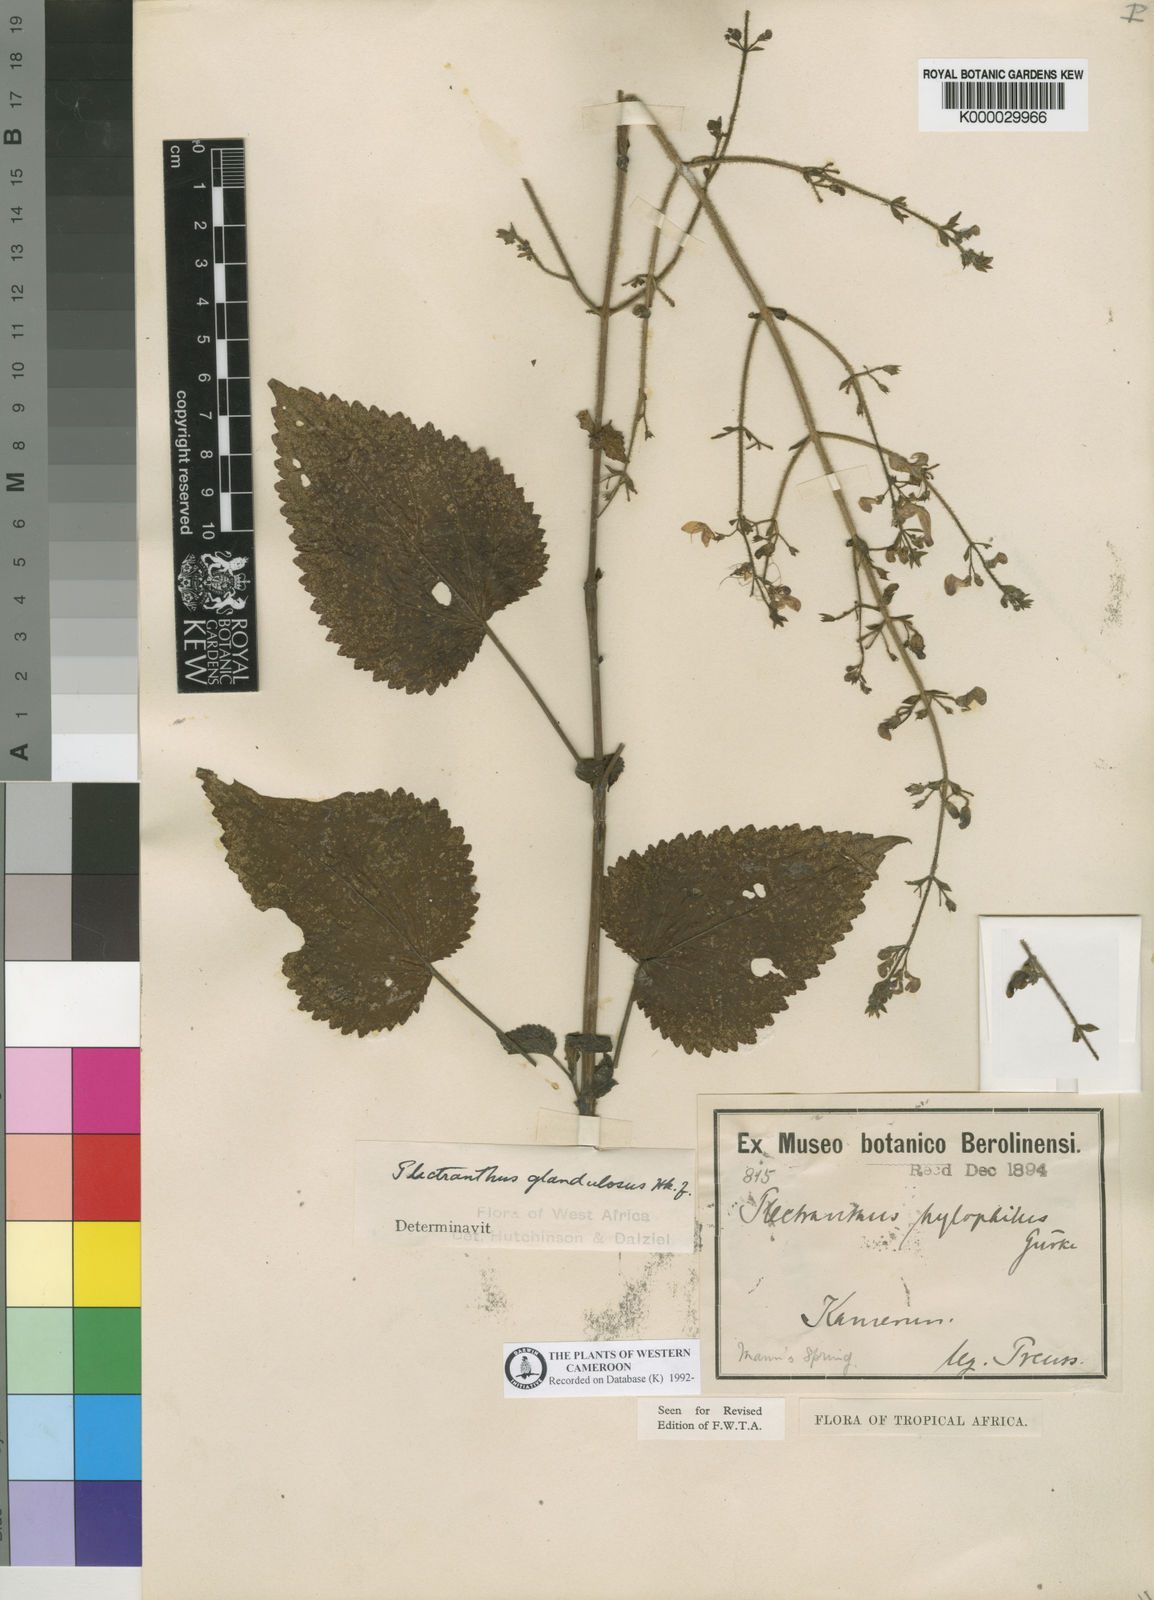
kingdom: Plantae
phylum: Tracheophyta
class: Magnoliopsida
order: Lamiales
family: Lamiaceae
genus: Equilabium
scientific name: Equilabium glandulosum
